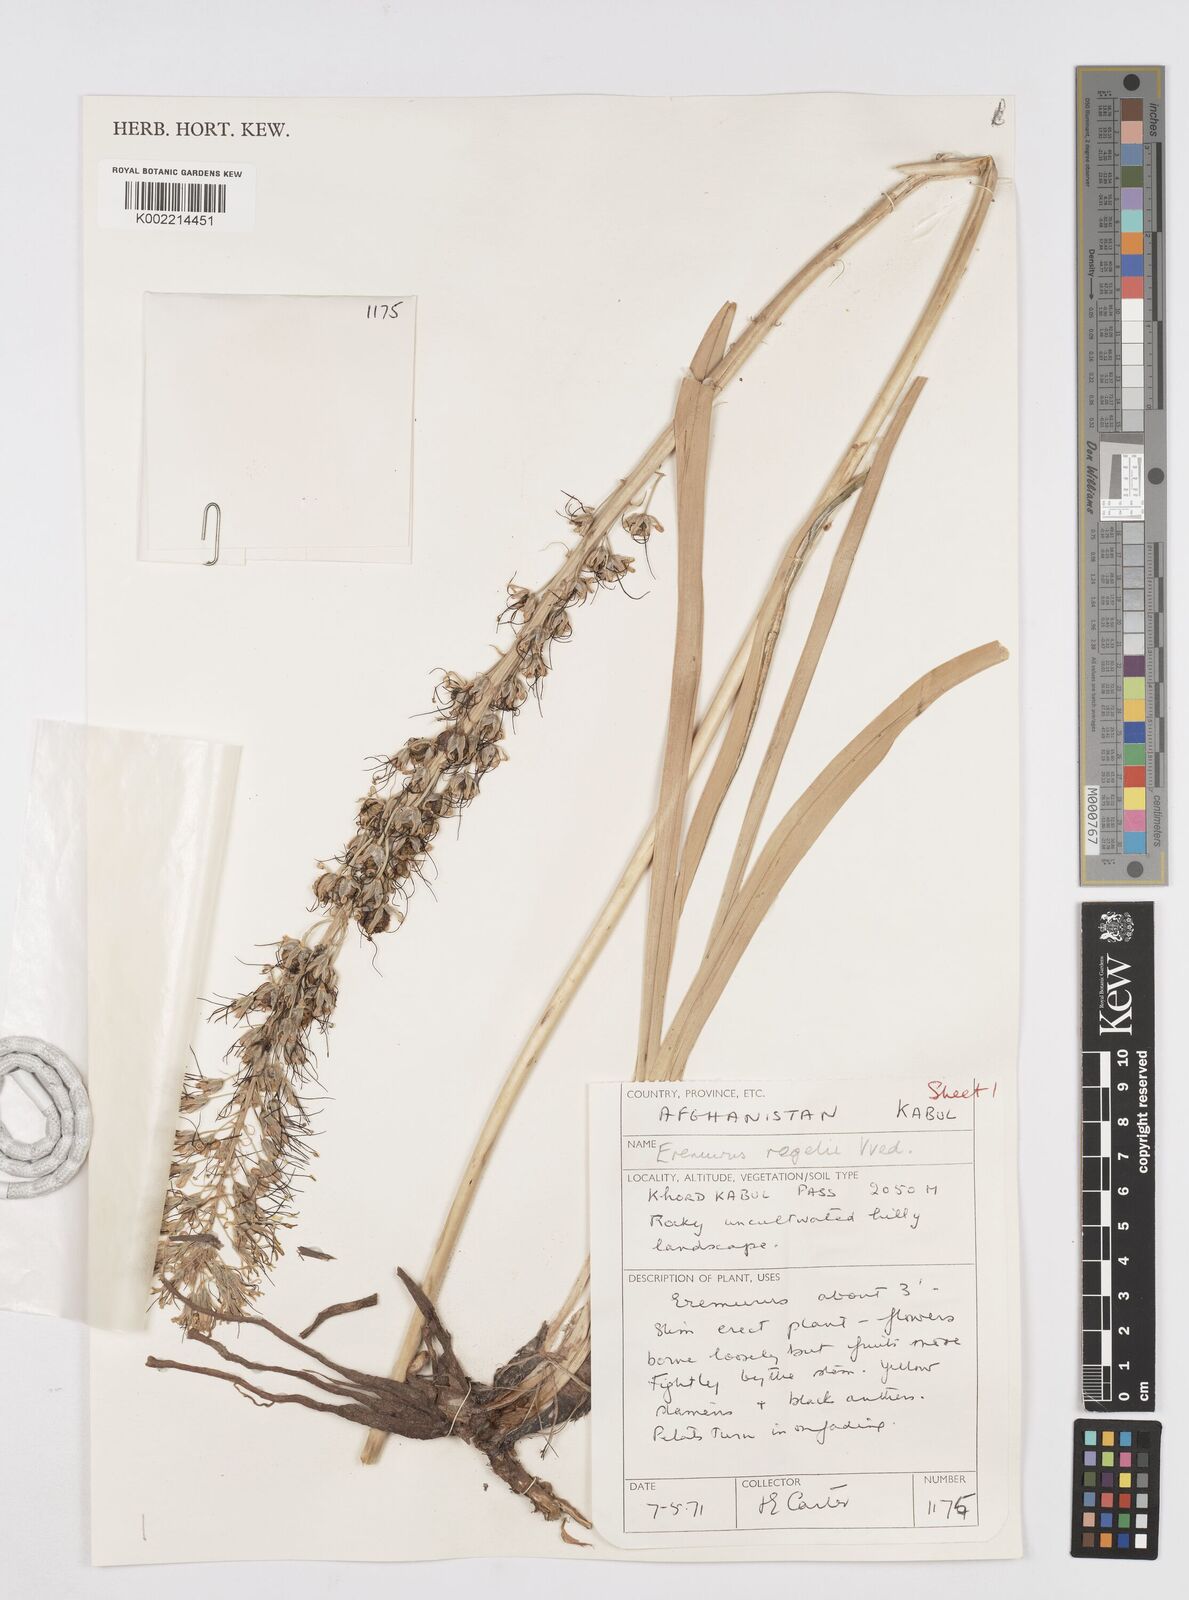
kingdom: Plantae
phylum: Tracheophyta
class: Liliopsida
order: Asparagales
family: Asphodelaceae
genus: Eremurus
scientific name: Eremurus regelii
